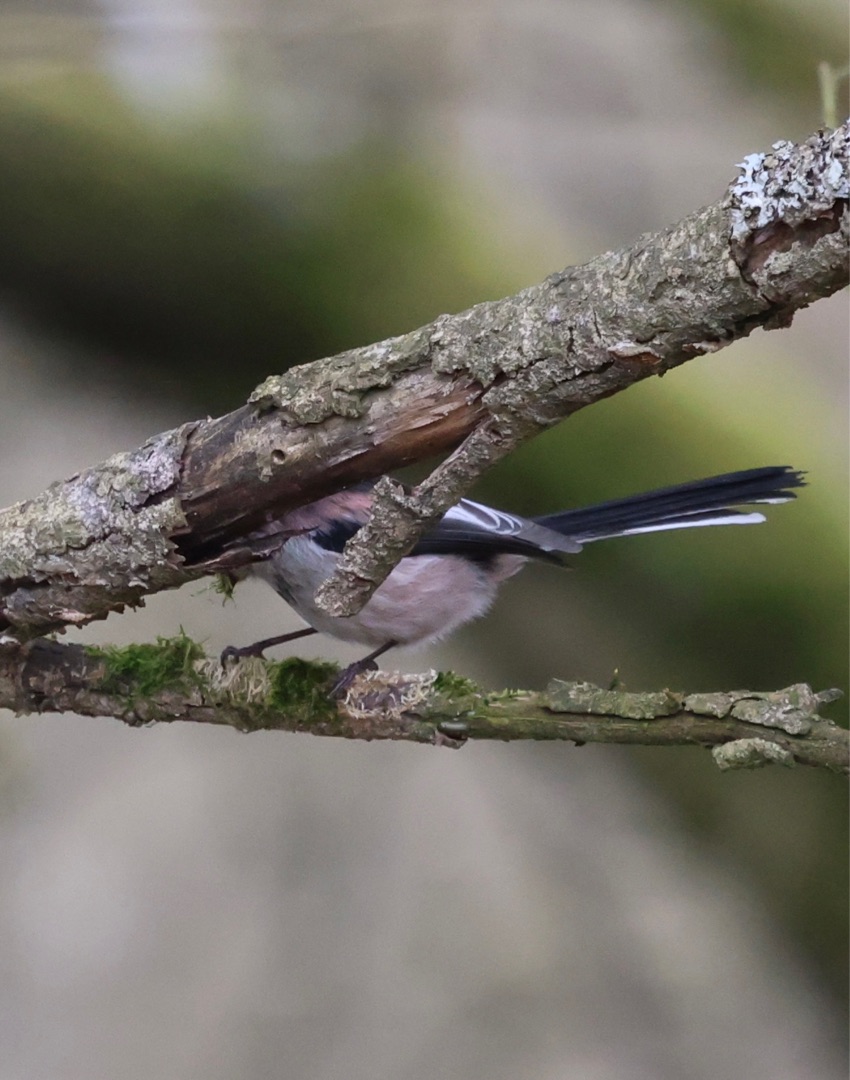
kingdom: Animalia
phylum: Chordata
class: Aves
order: Passeriformes
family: Aegithalidae
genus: Aegithalos
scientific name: Aegithalos caudatus
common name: Halemejse
